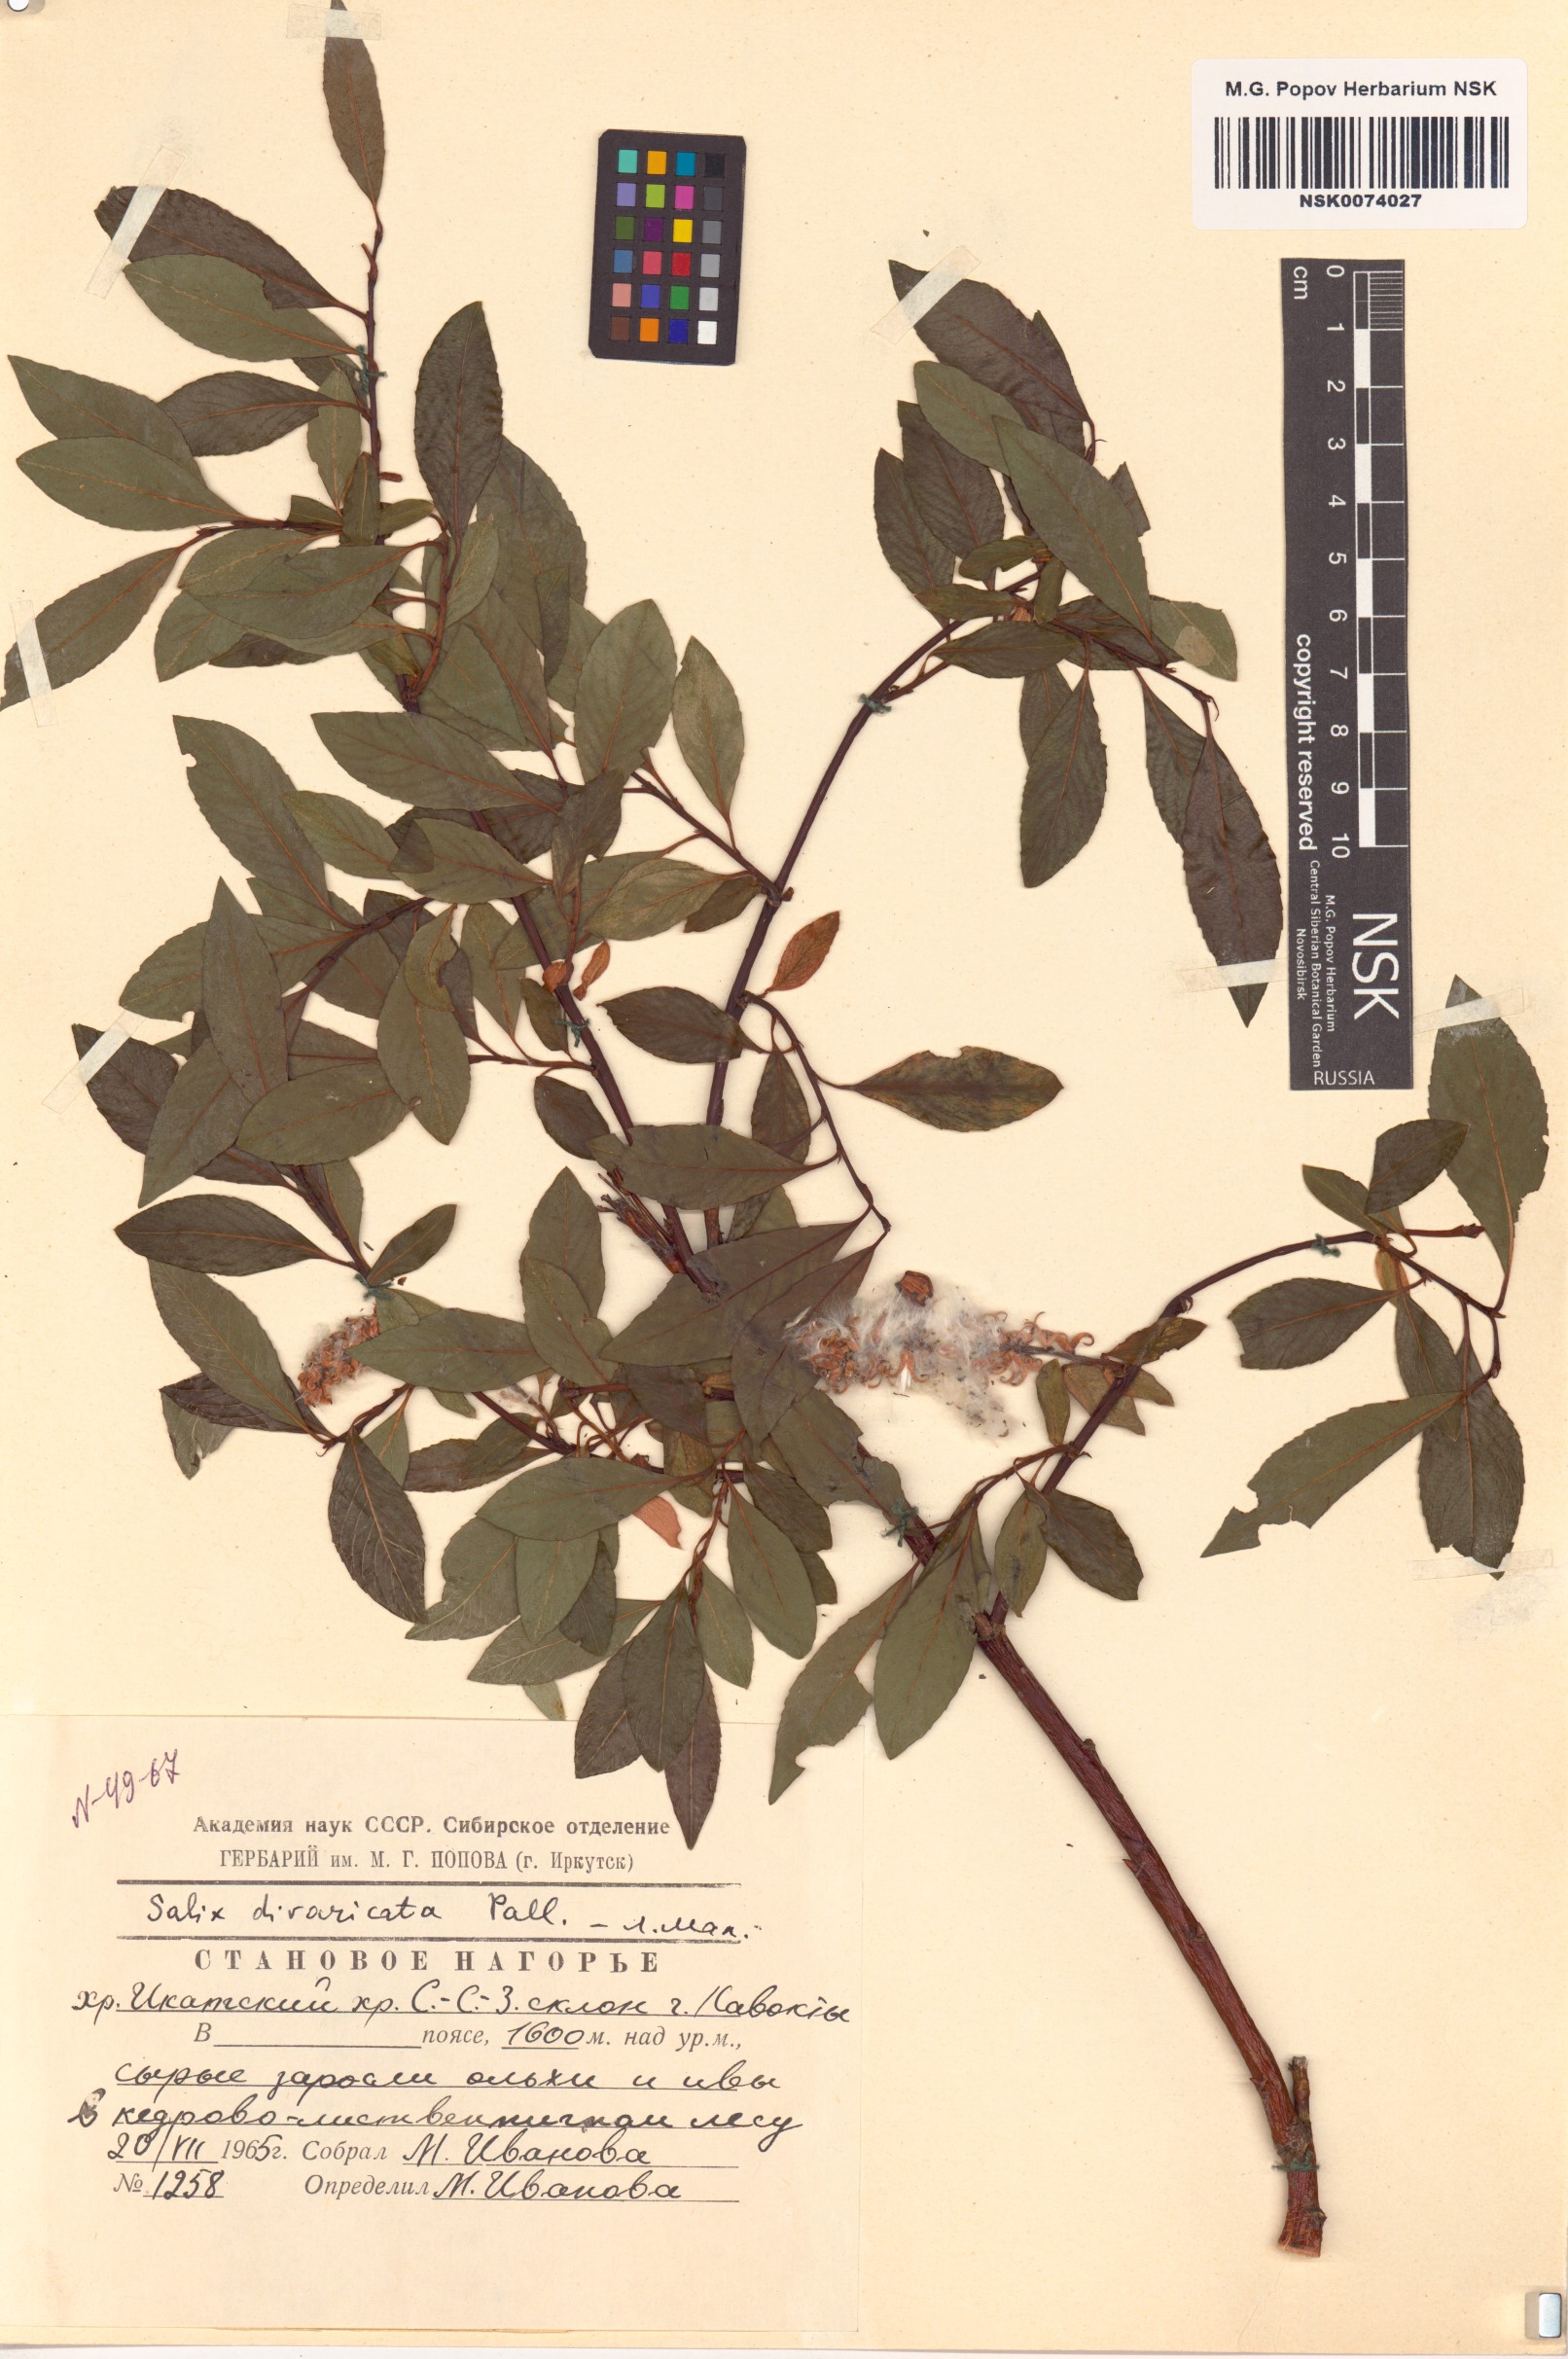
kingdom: Plantae
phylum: Tracheophyta
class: Magnoliopsida
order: Malpighiales
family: Salicaceae
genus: Salix
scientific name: Salix divaricata
